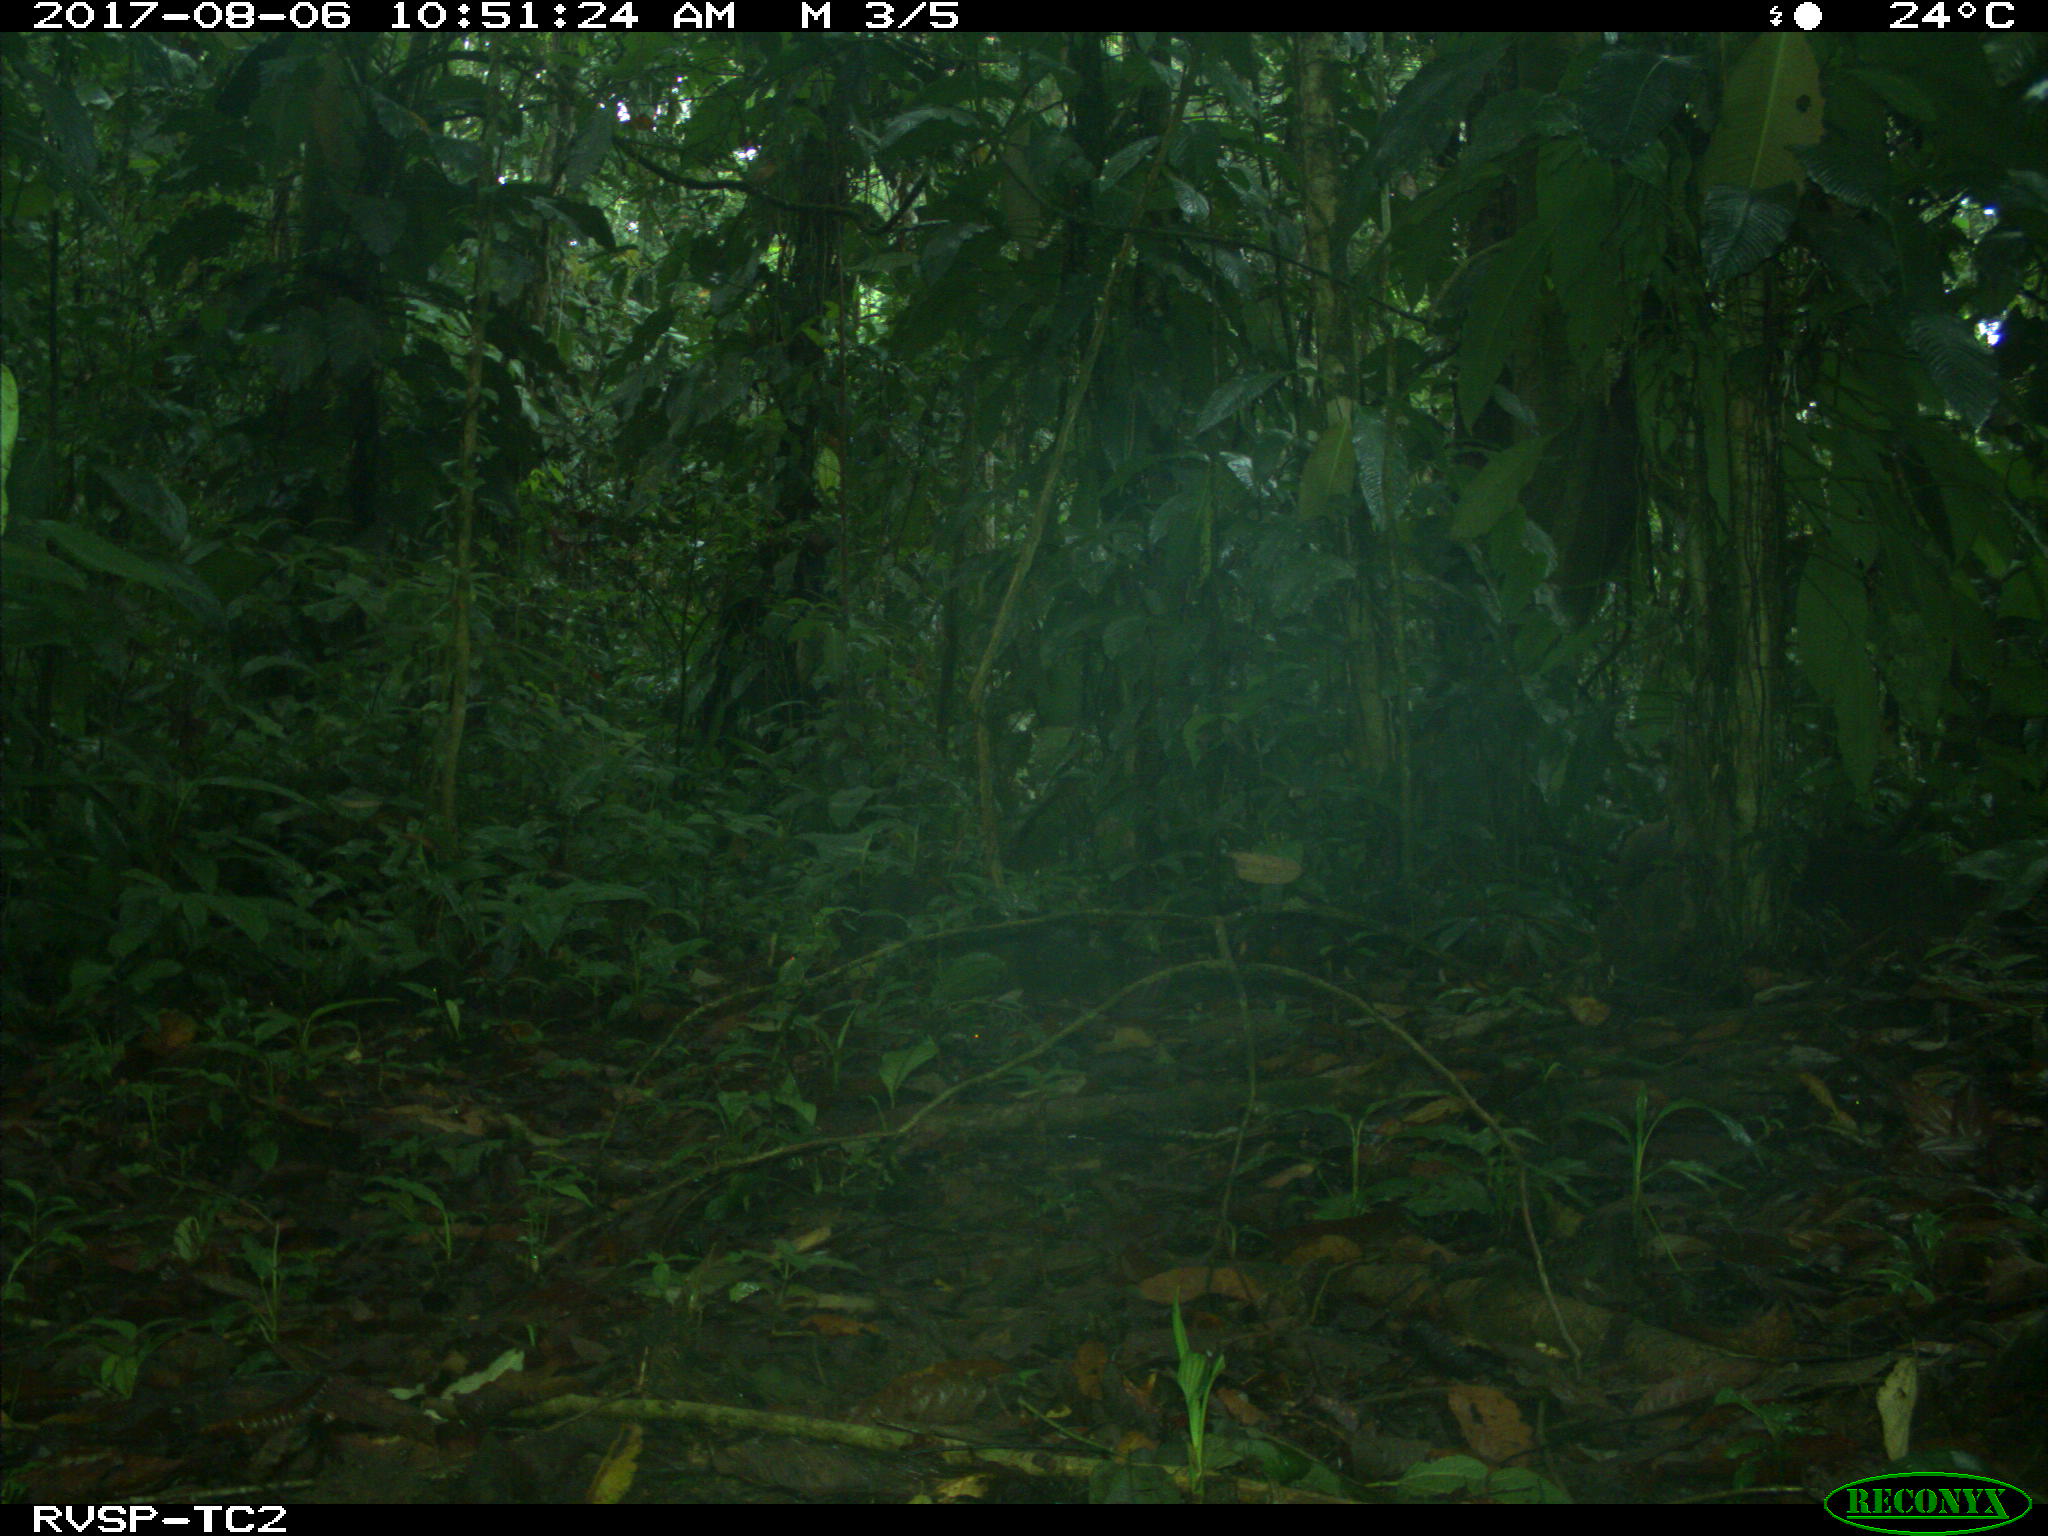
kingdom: Animalia
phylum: Chordata
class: Mammalia
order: Rodentia
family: Dasyproctidae
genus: Dasyprocta
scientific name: Dasyprocta punctata
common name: Central american agouti
